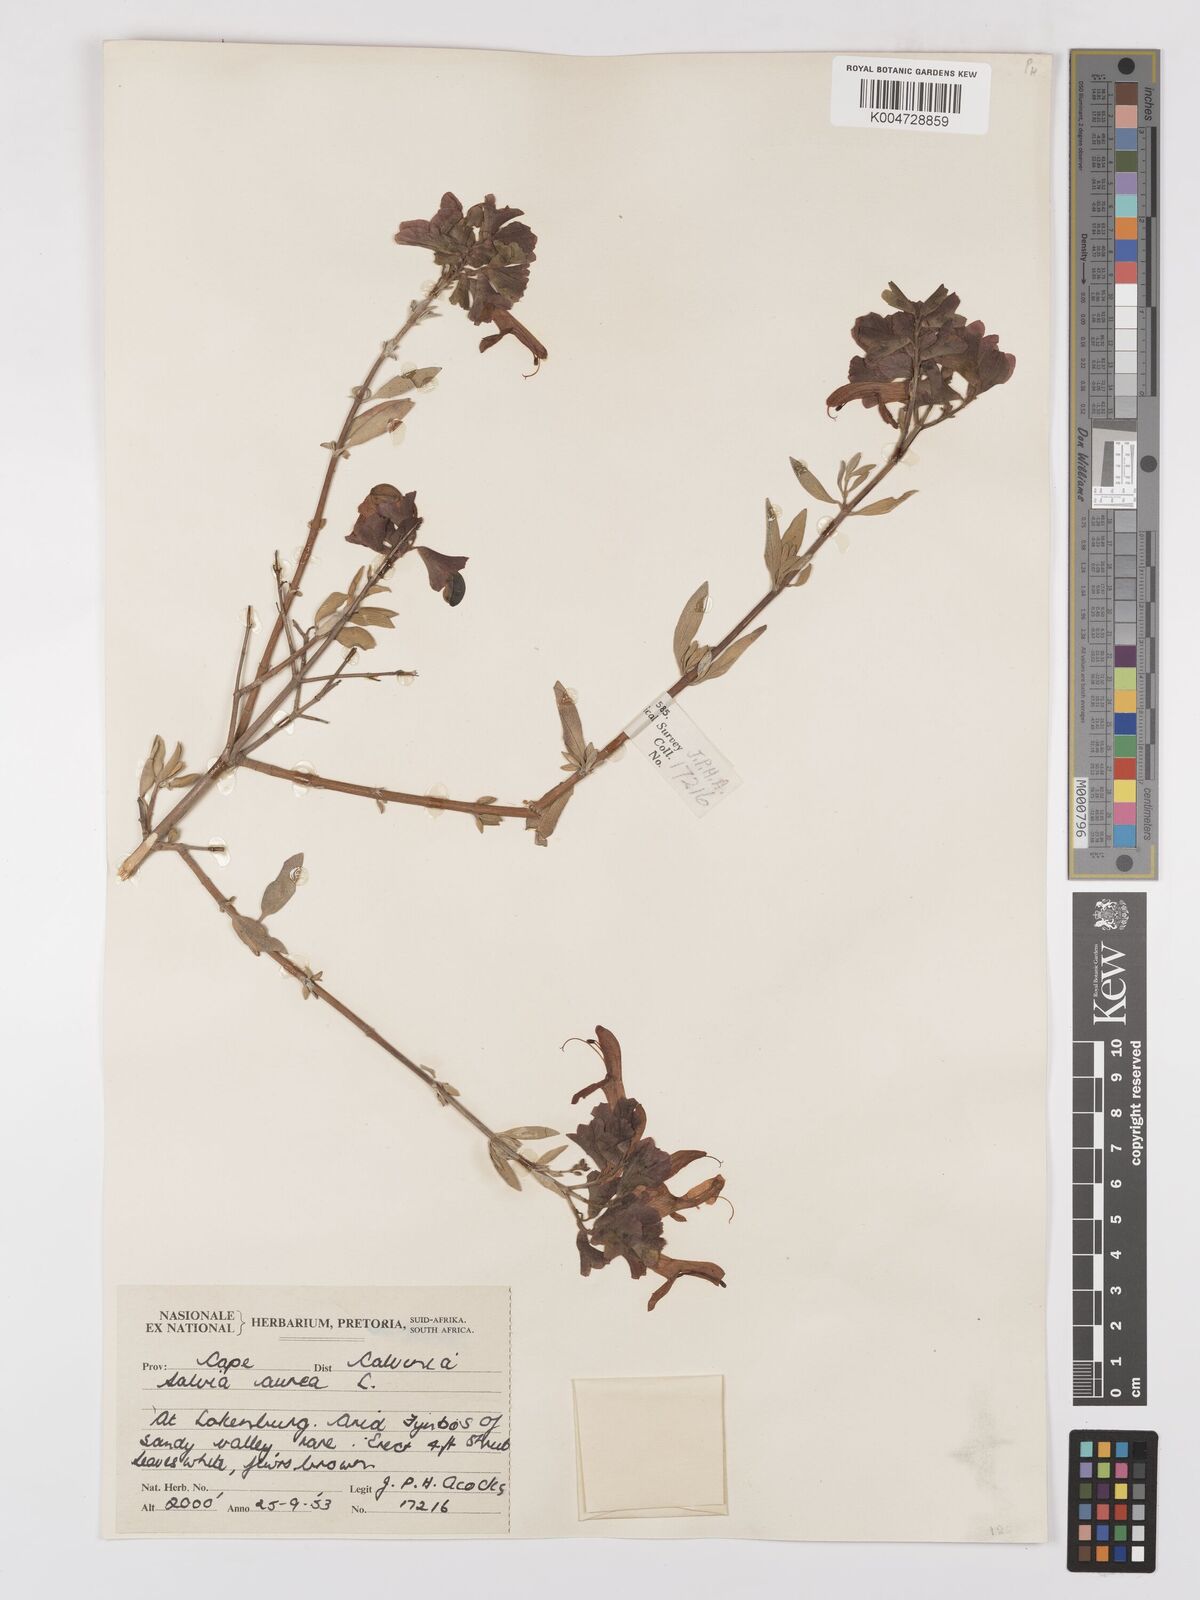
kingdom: Plantae
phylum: Tracheophyta
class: Magnoliopsida
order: Lamiales
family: Lamiaceae
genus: Salvia
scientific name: Salvia aurea
